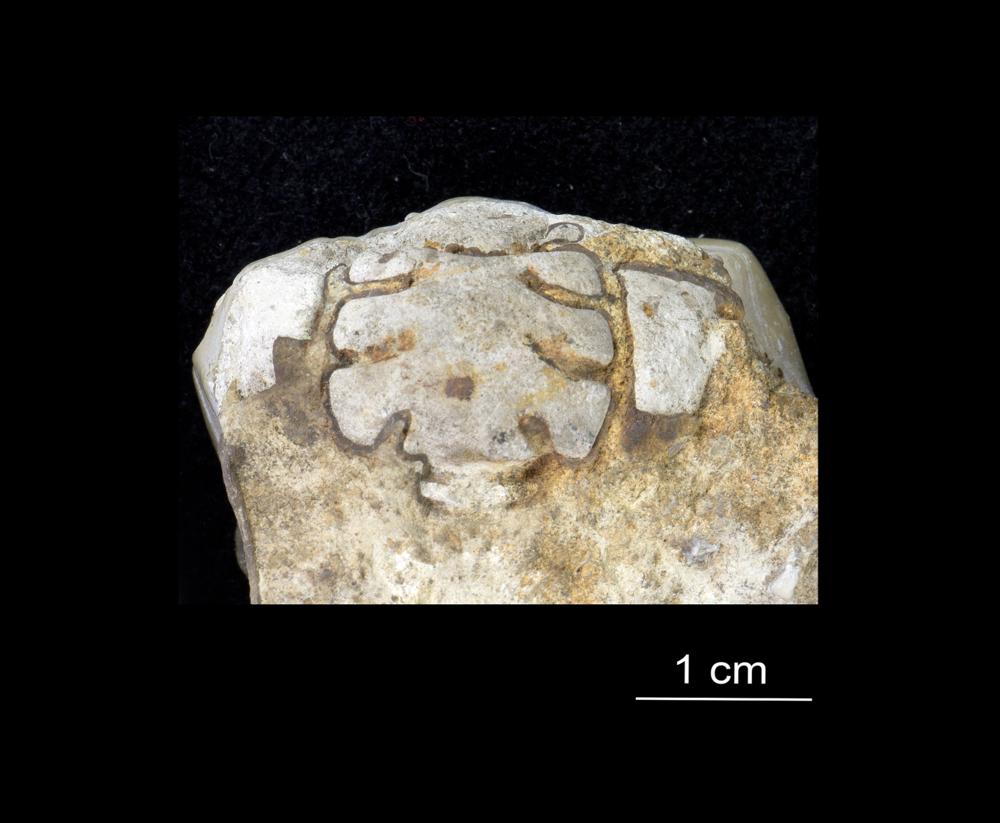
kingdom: Animalia
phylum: Arthropoda
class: Trilobita
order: Phacopida
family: Pliomeridae
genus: Pliomera
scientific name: Pliomera Asaphus fisheri
